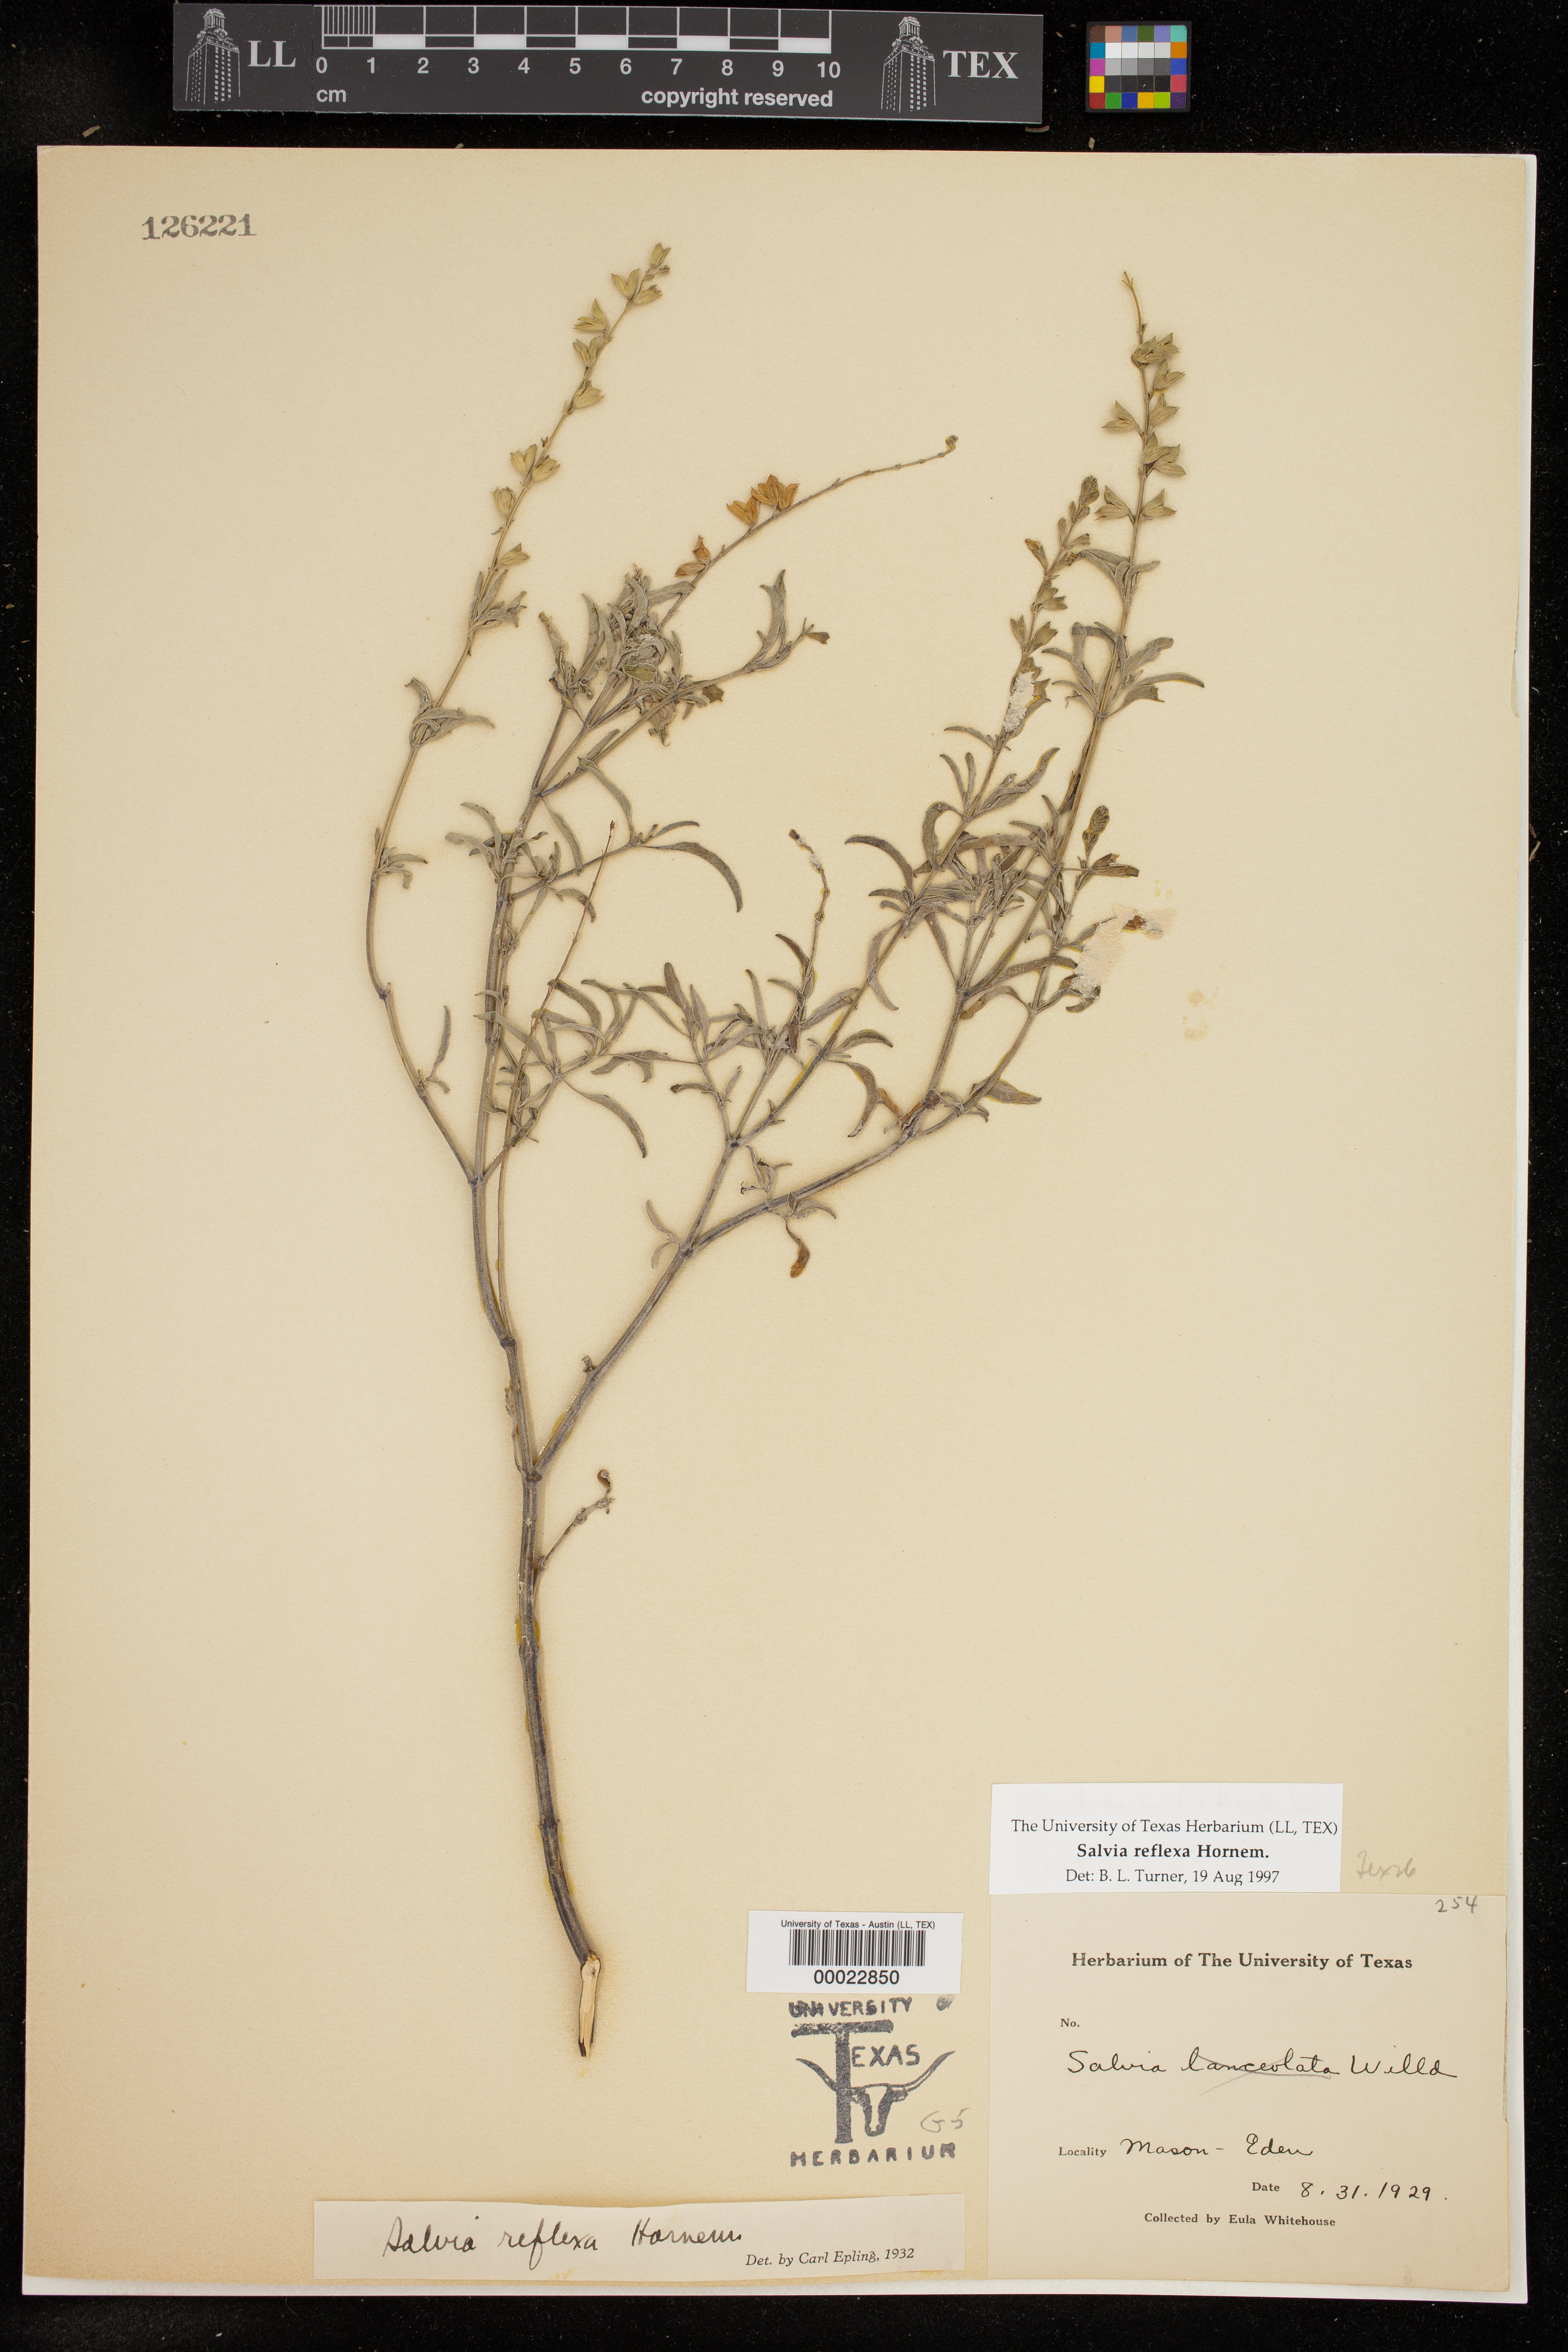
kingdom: Plantae
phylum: Tracheophyta
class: Magnoliopsida
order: Lamiales
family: Lamiaceae
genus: Salvia
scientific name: Salvia reflexa
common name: Mintweed
